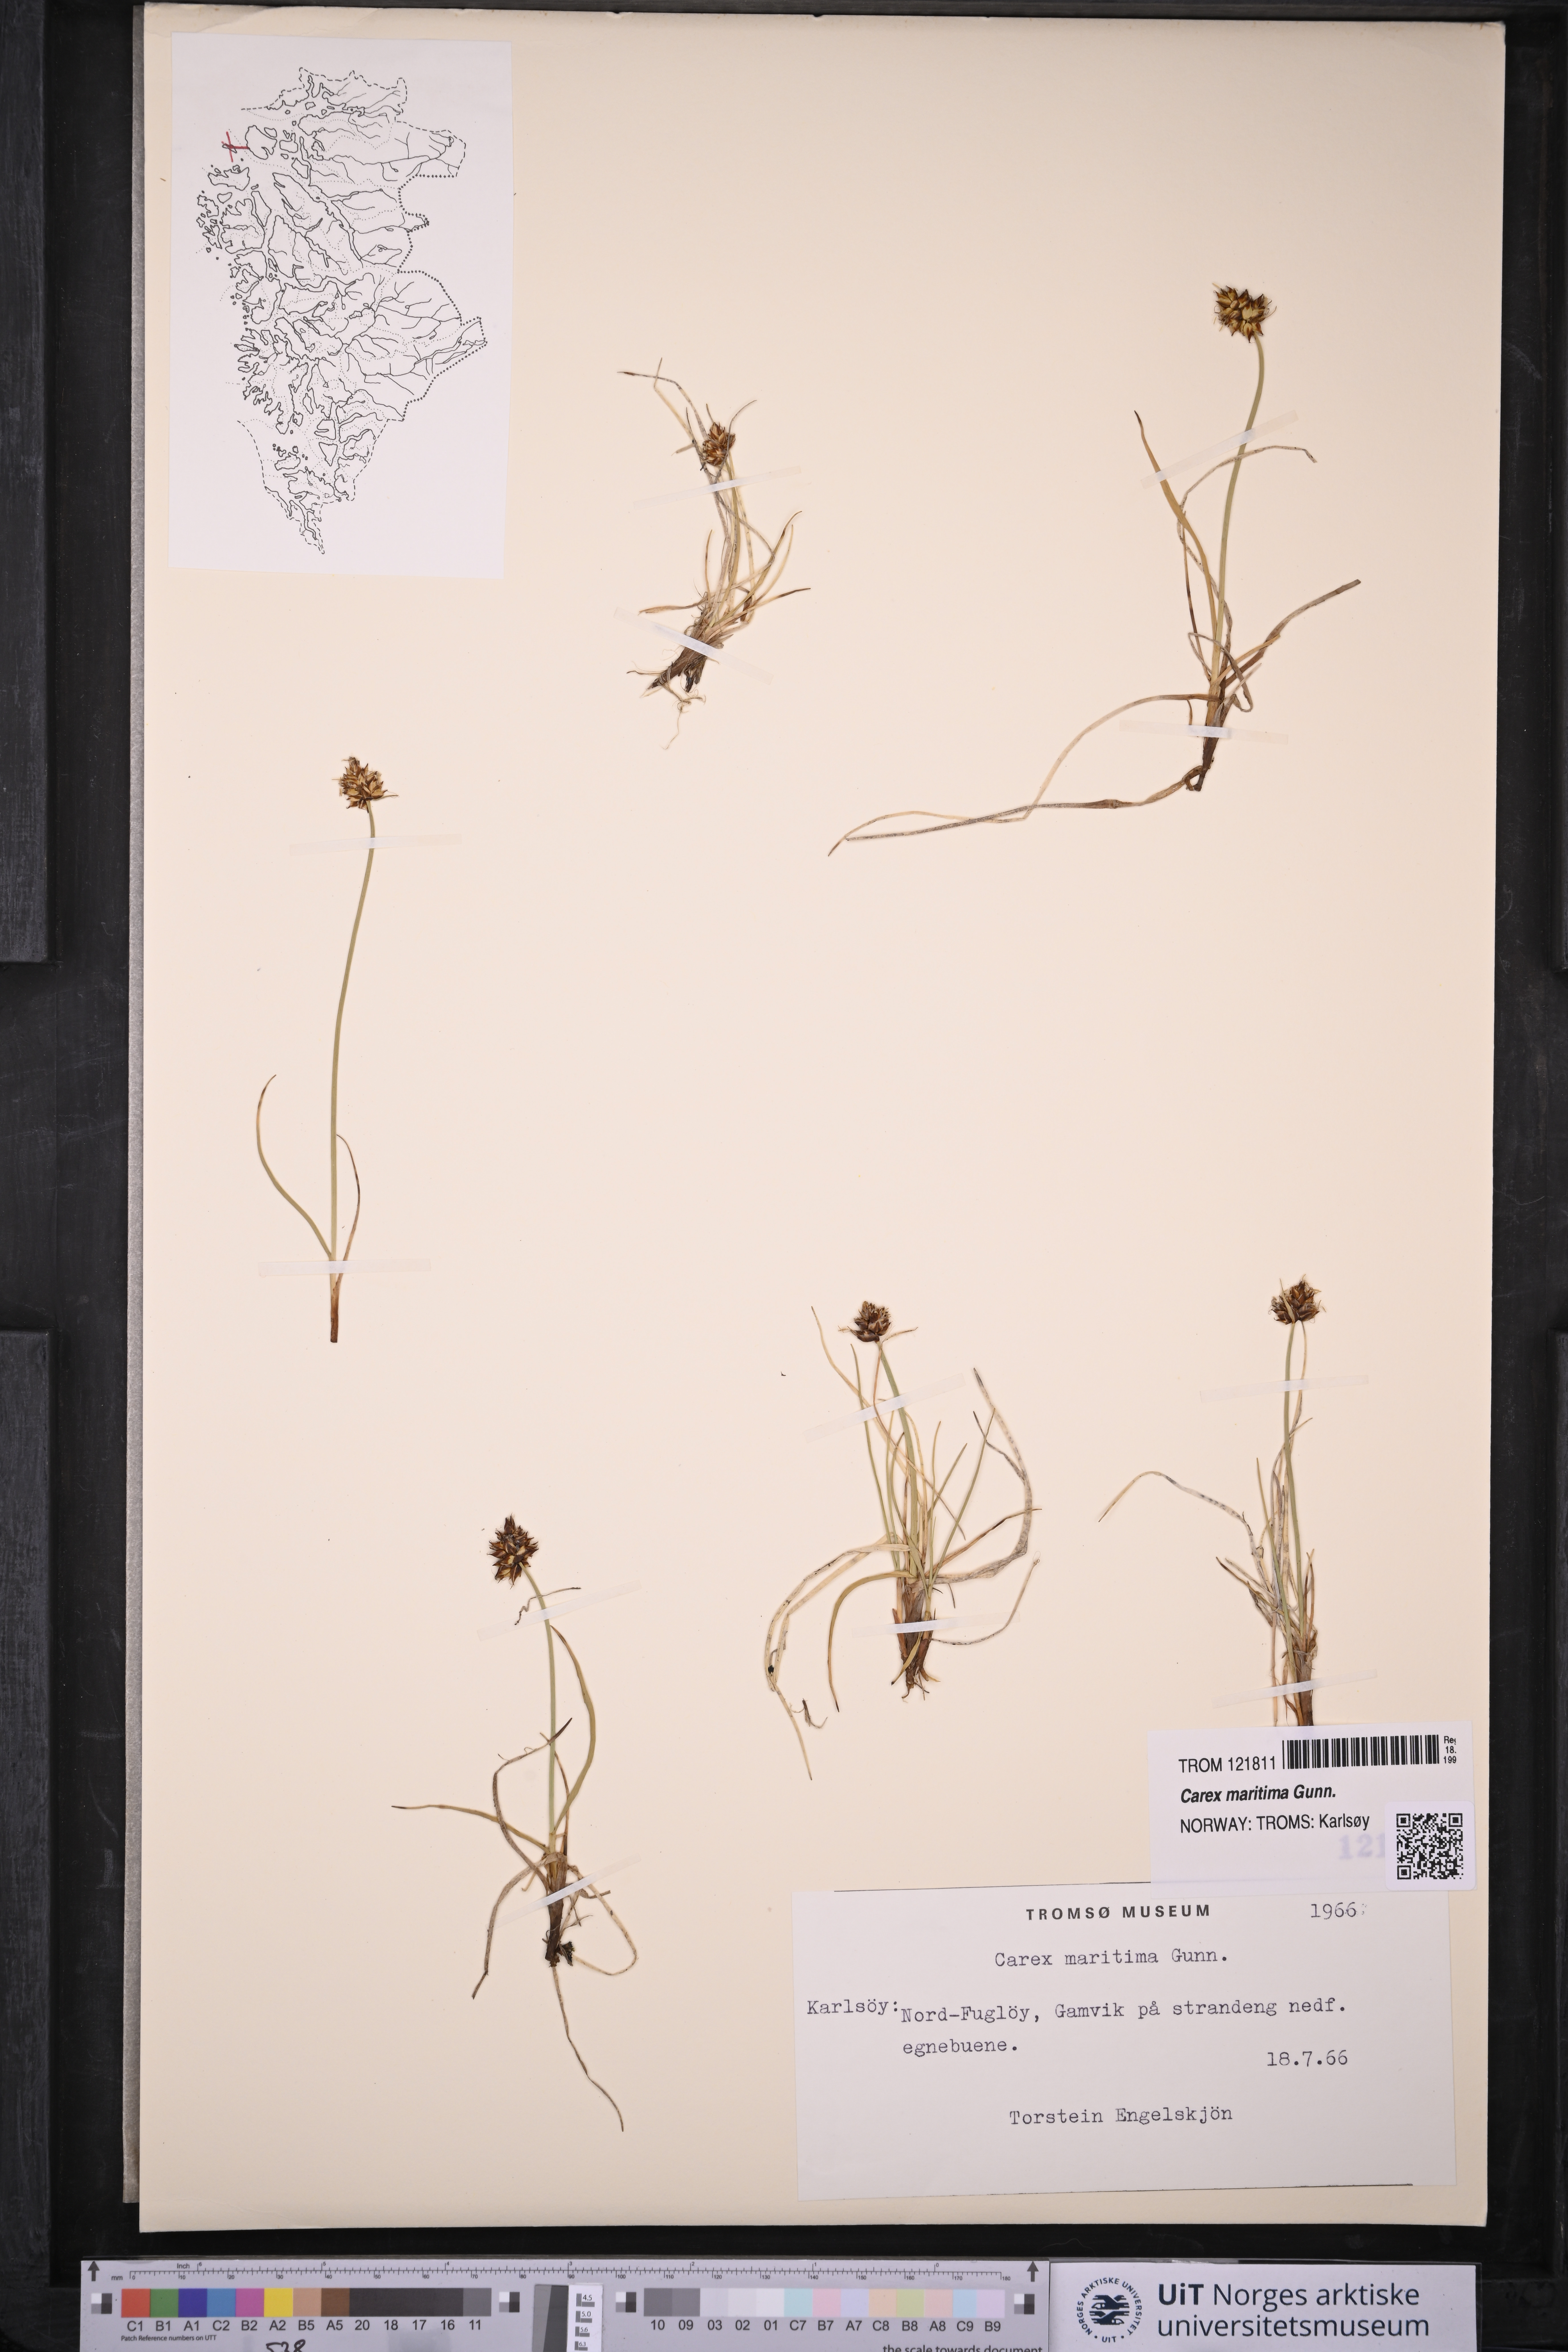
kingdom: Plantae
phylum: Tracheophyta
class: Liliopsida
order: Poales
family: Cyperaceae
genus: Carex
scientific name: Carex maritima
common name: Curved sedge
